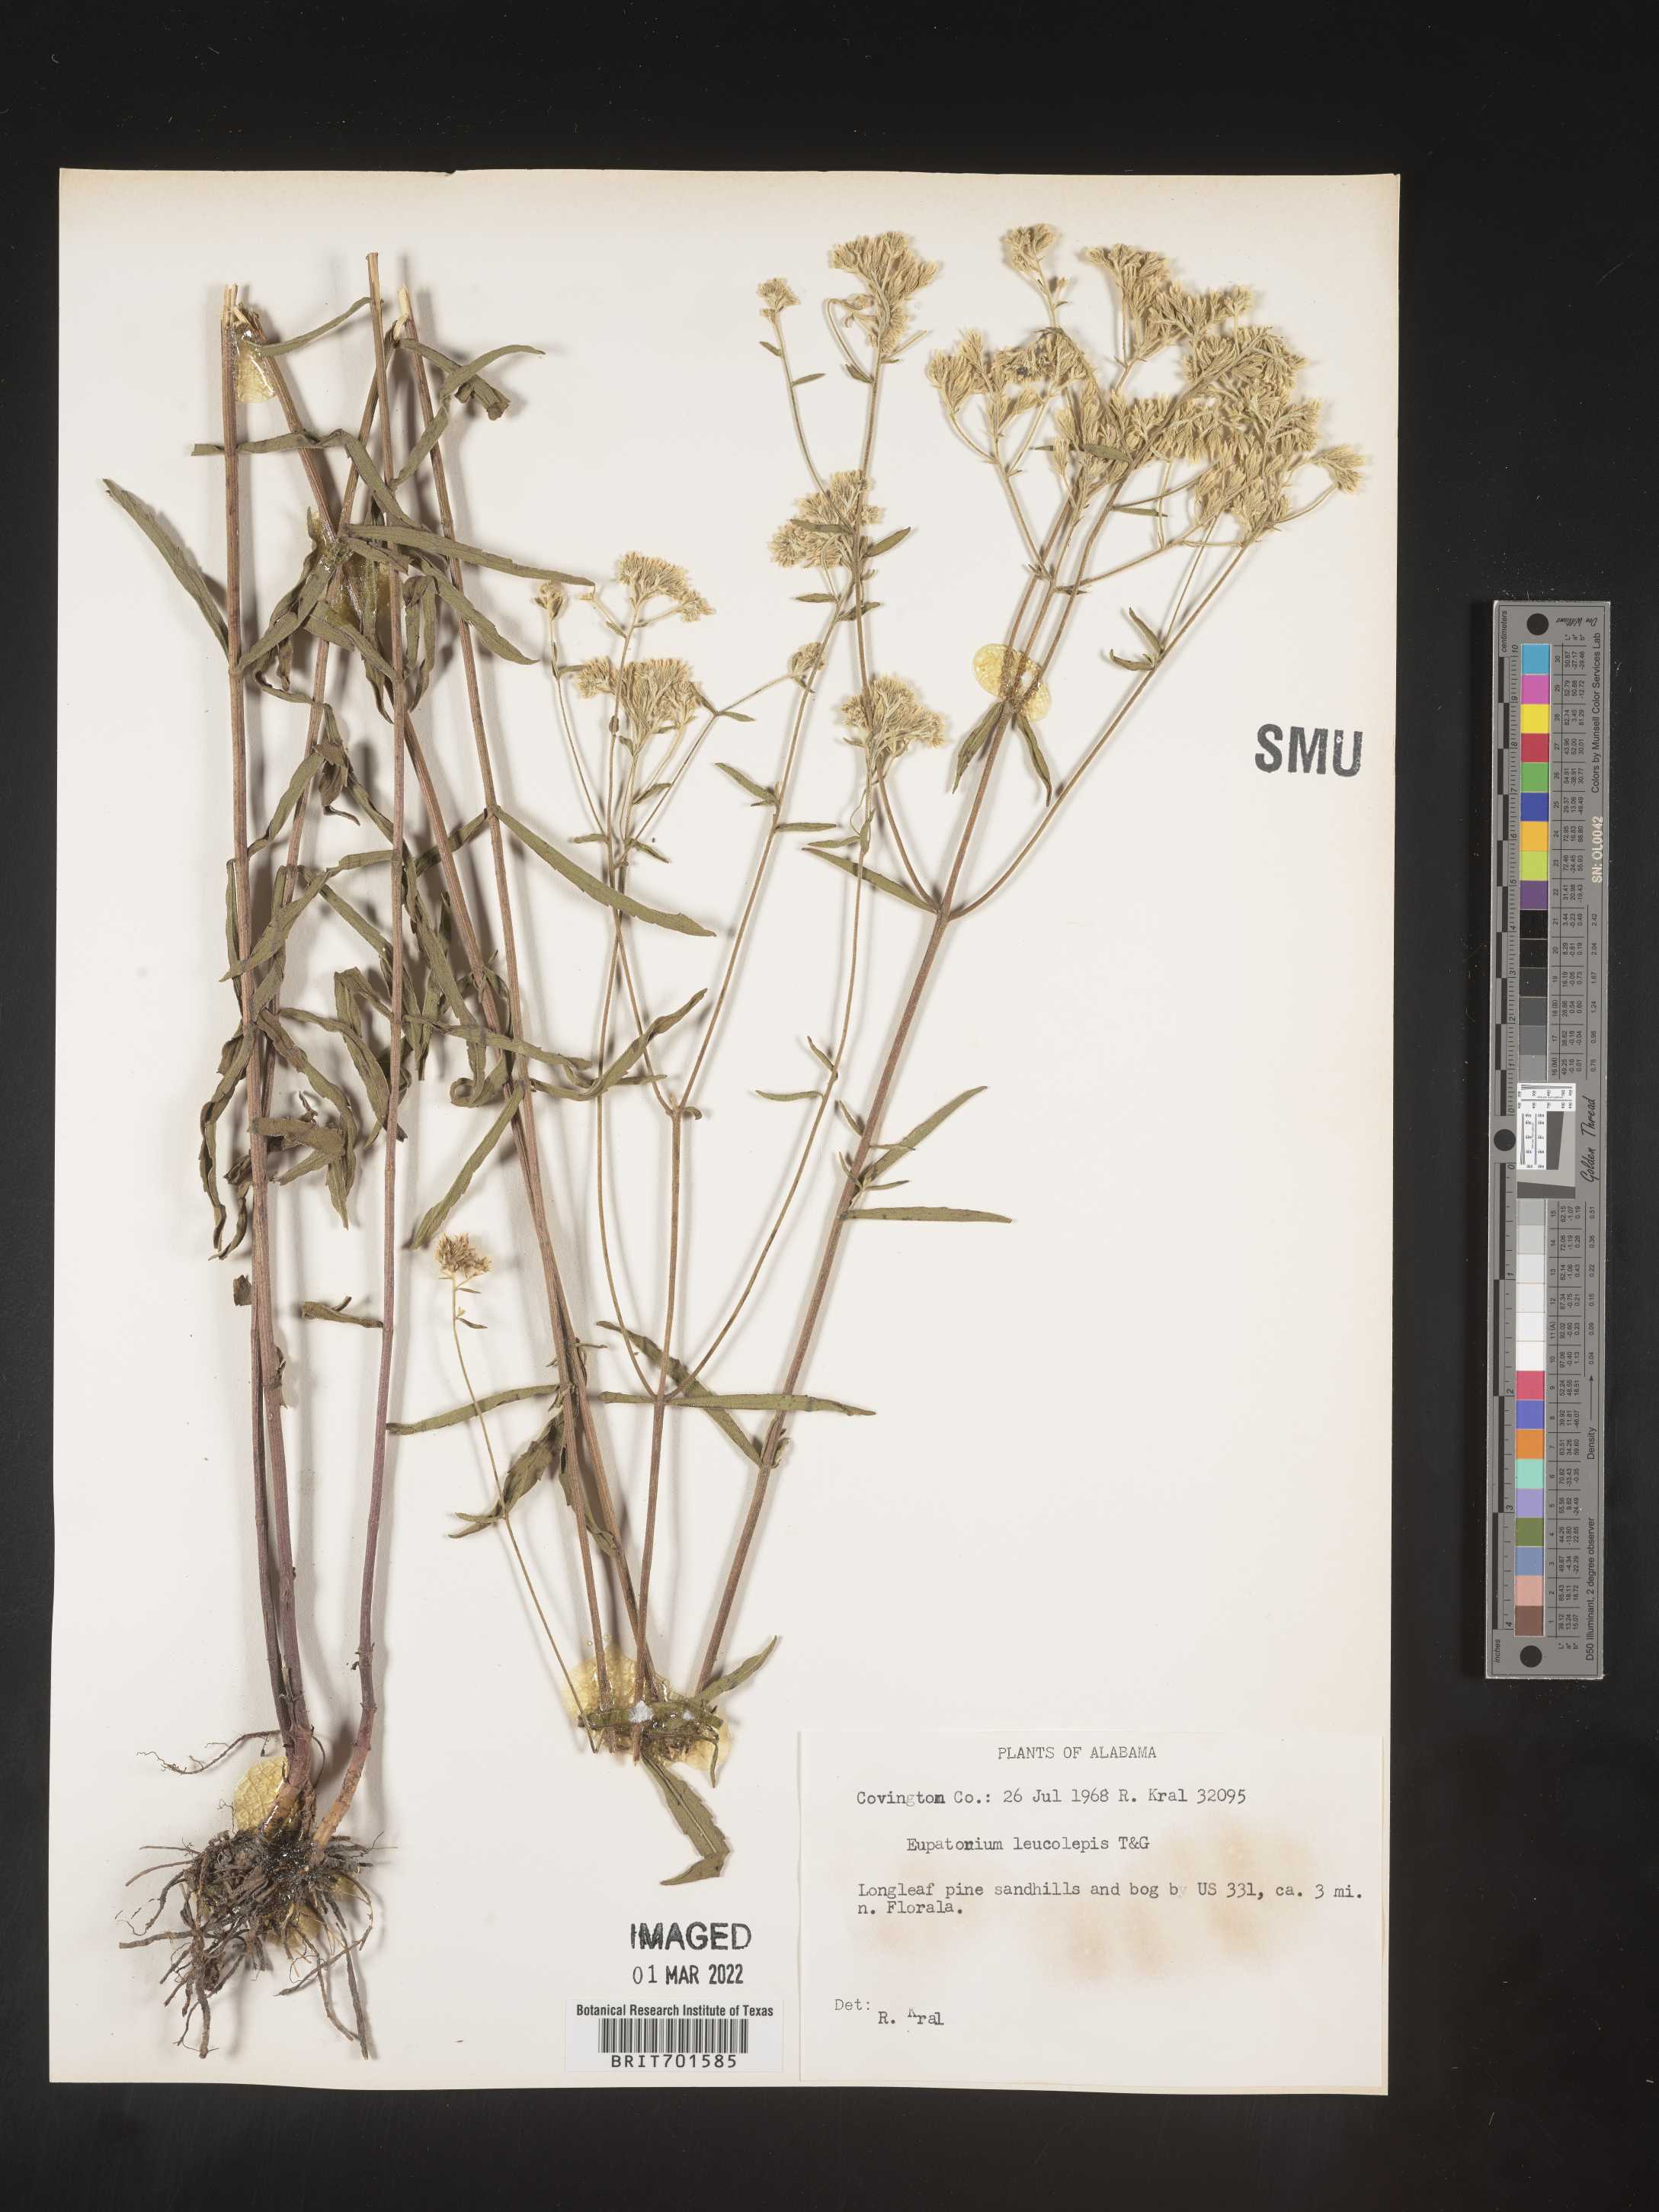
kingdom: Plantae
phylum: Tracheophyta
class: Magnoliopsida
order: Asterales
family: Asteraceae
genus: Eupatorium
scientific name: Eupatorium leucolepis
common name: Justiceweed
